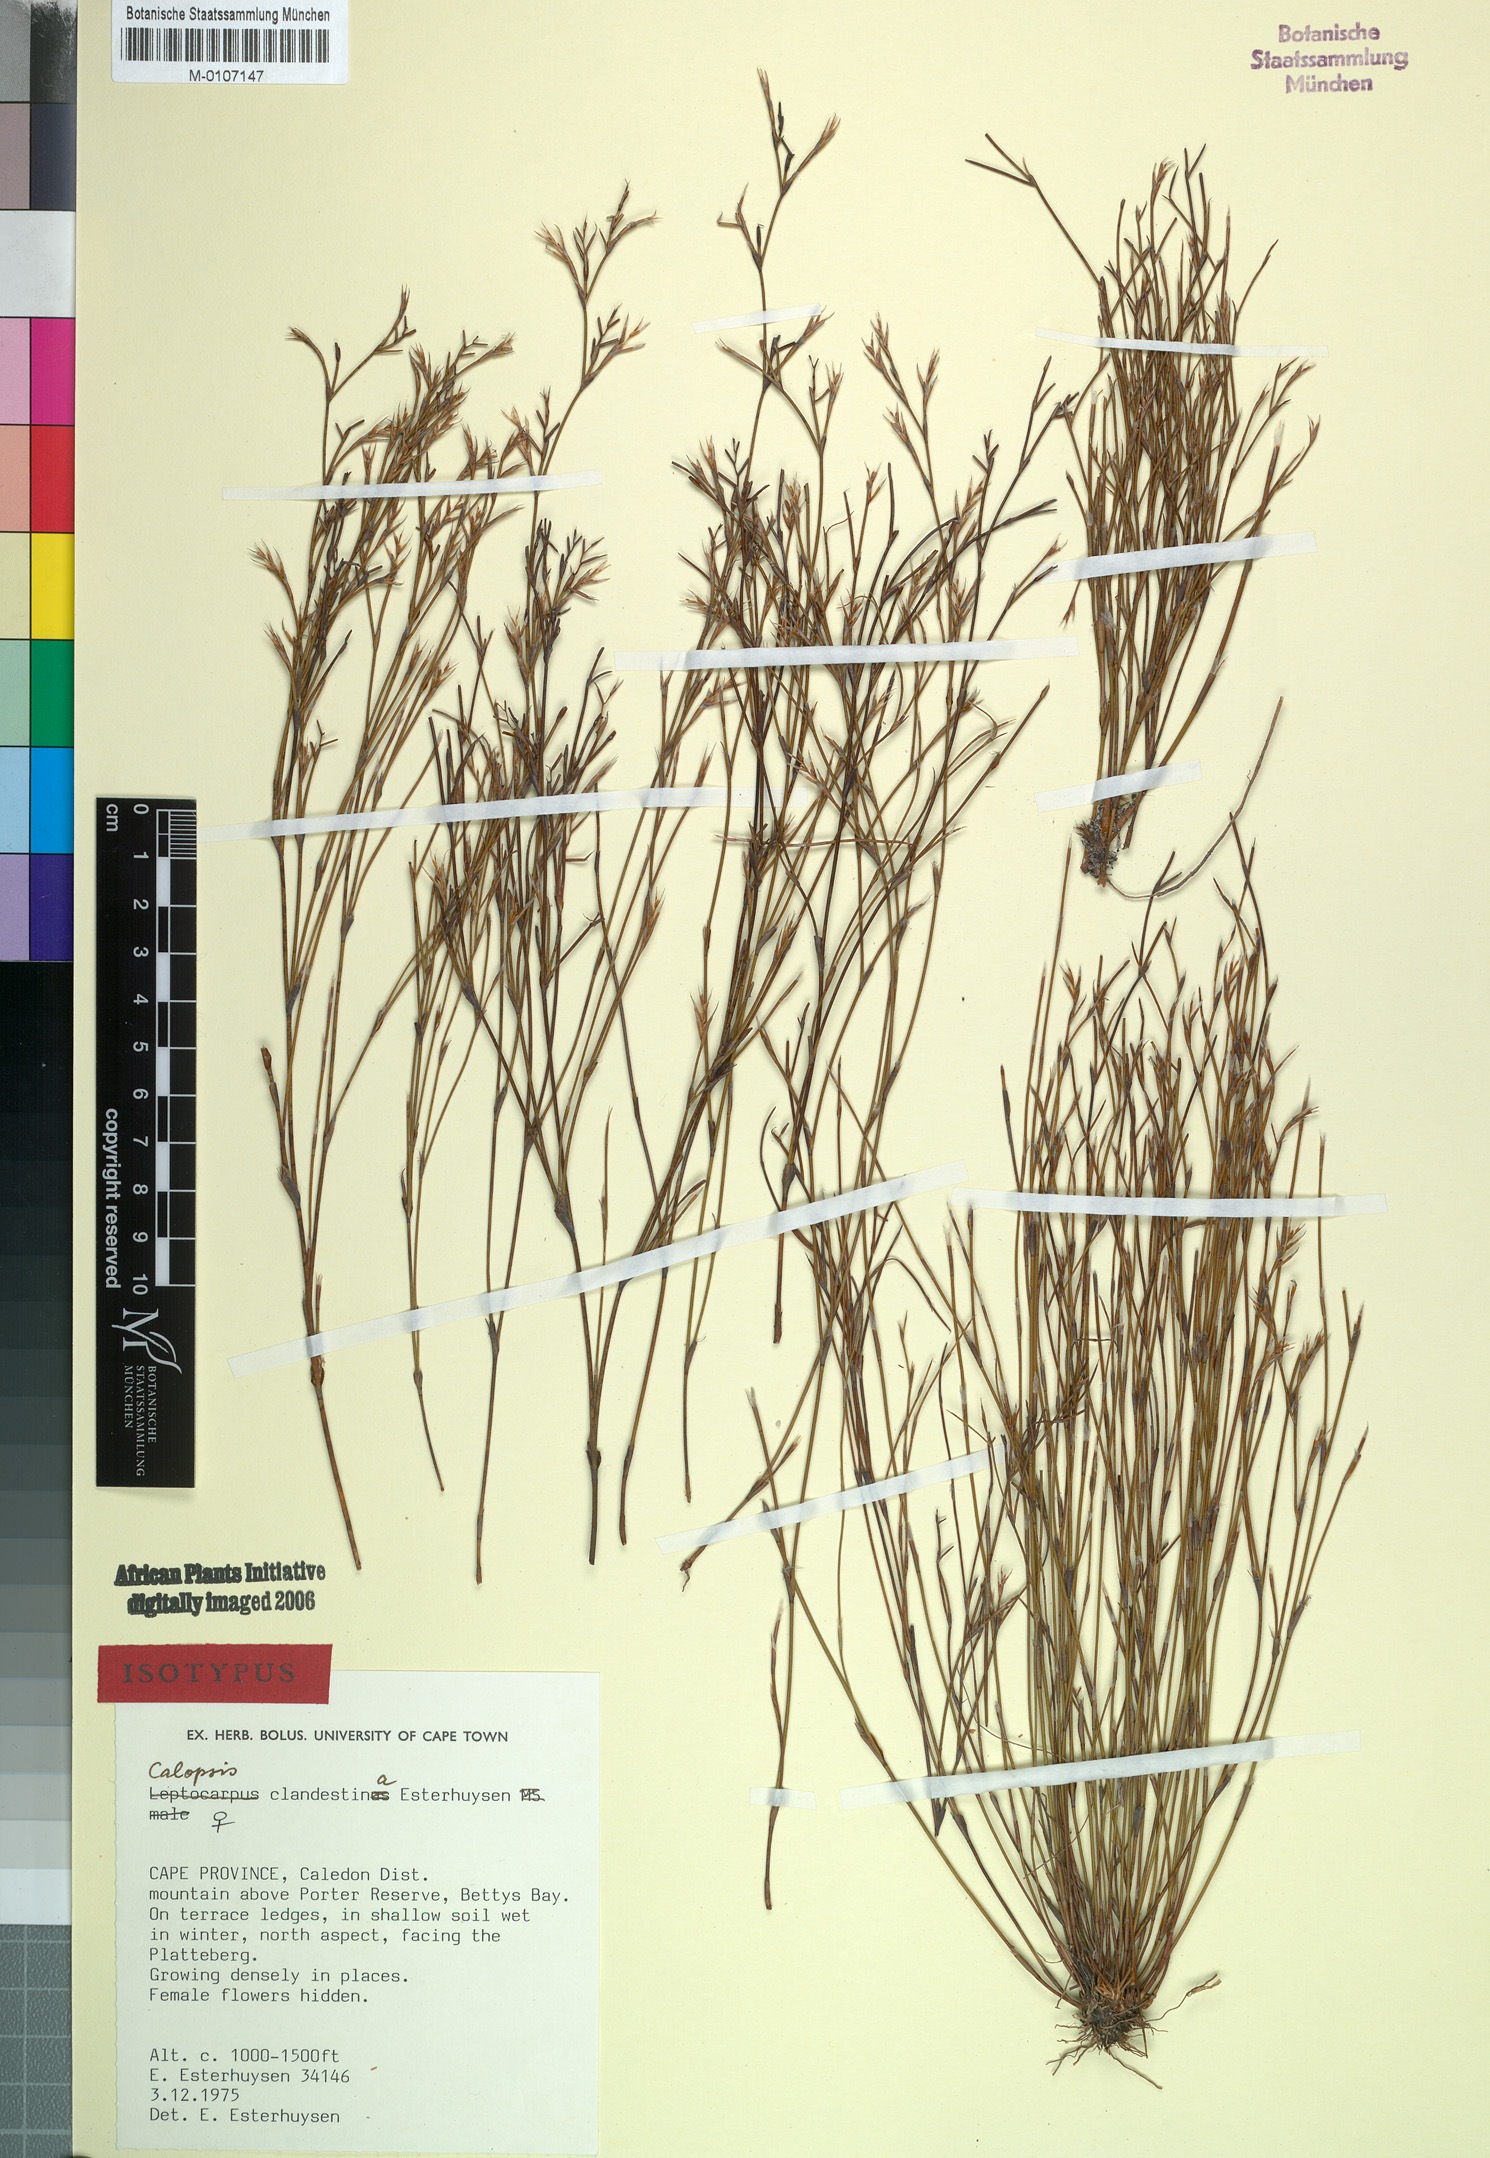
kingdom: Plantae
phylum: Tracheophyta
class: Liliopsida
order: Poales
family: Restionaceae
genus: Restio
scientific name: Restio clandestinus
